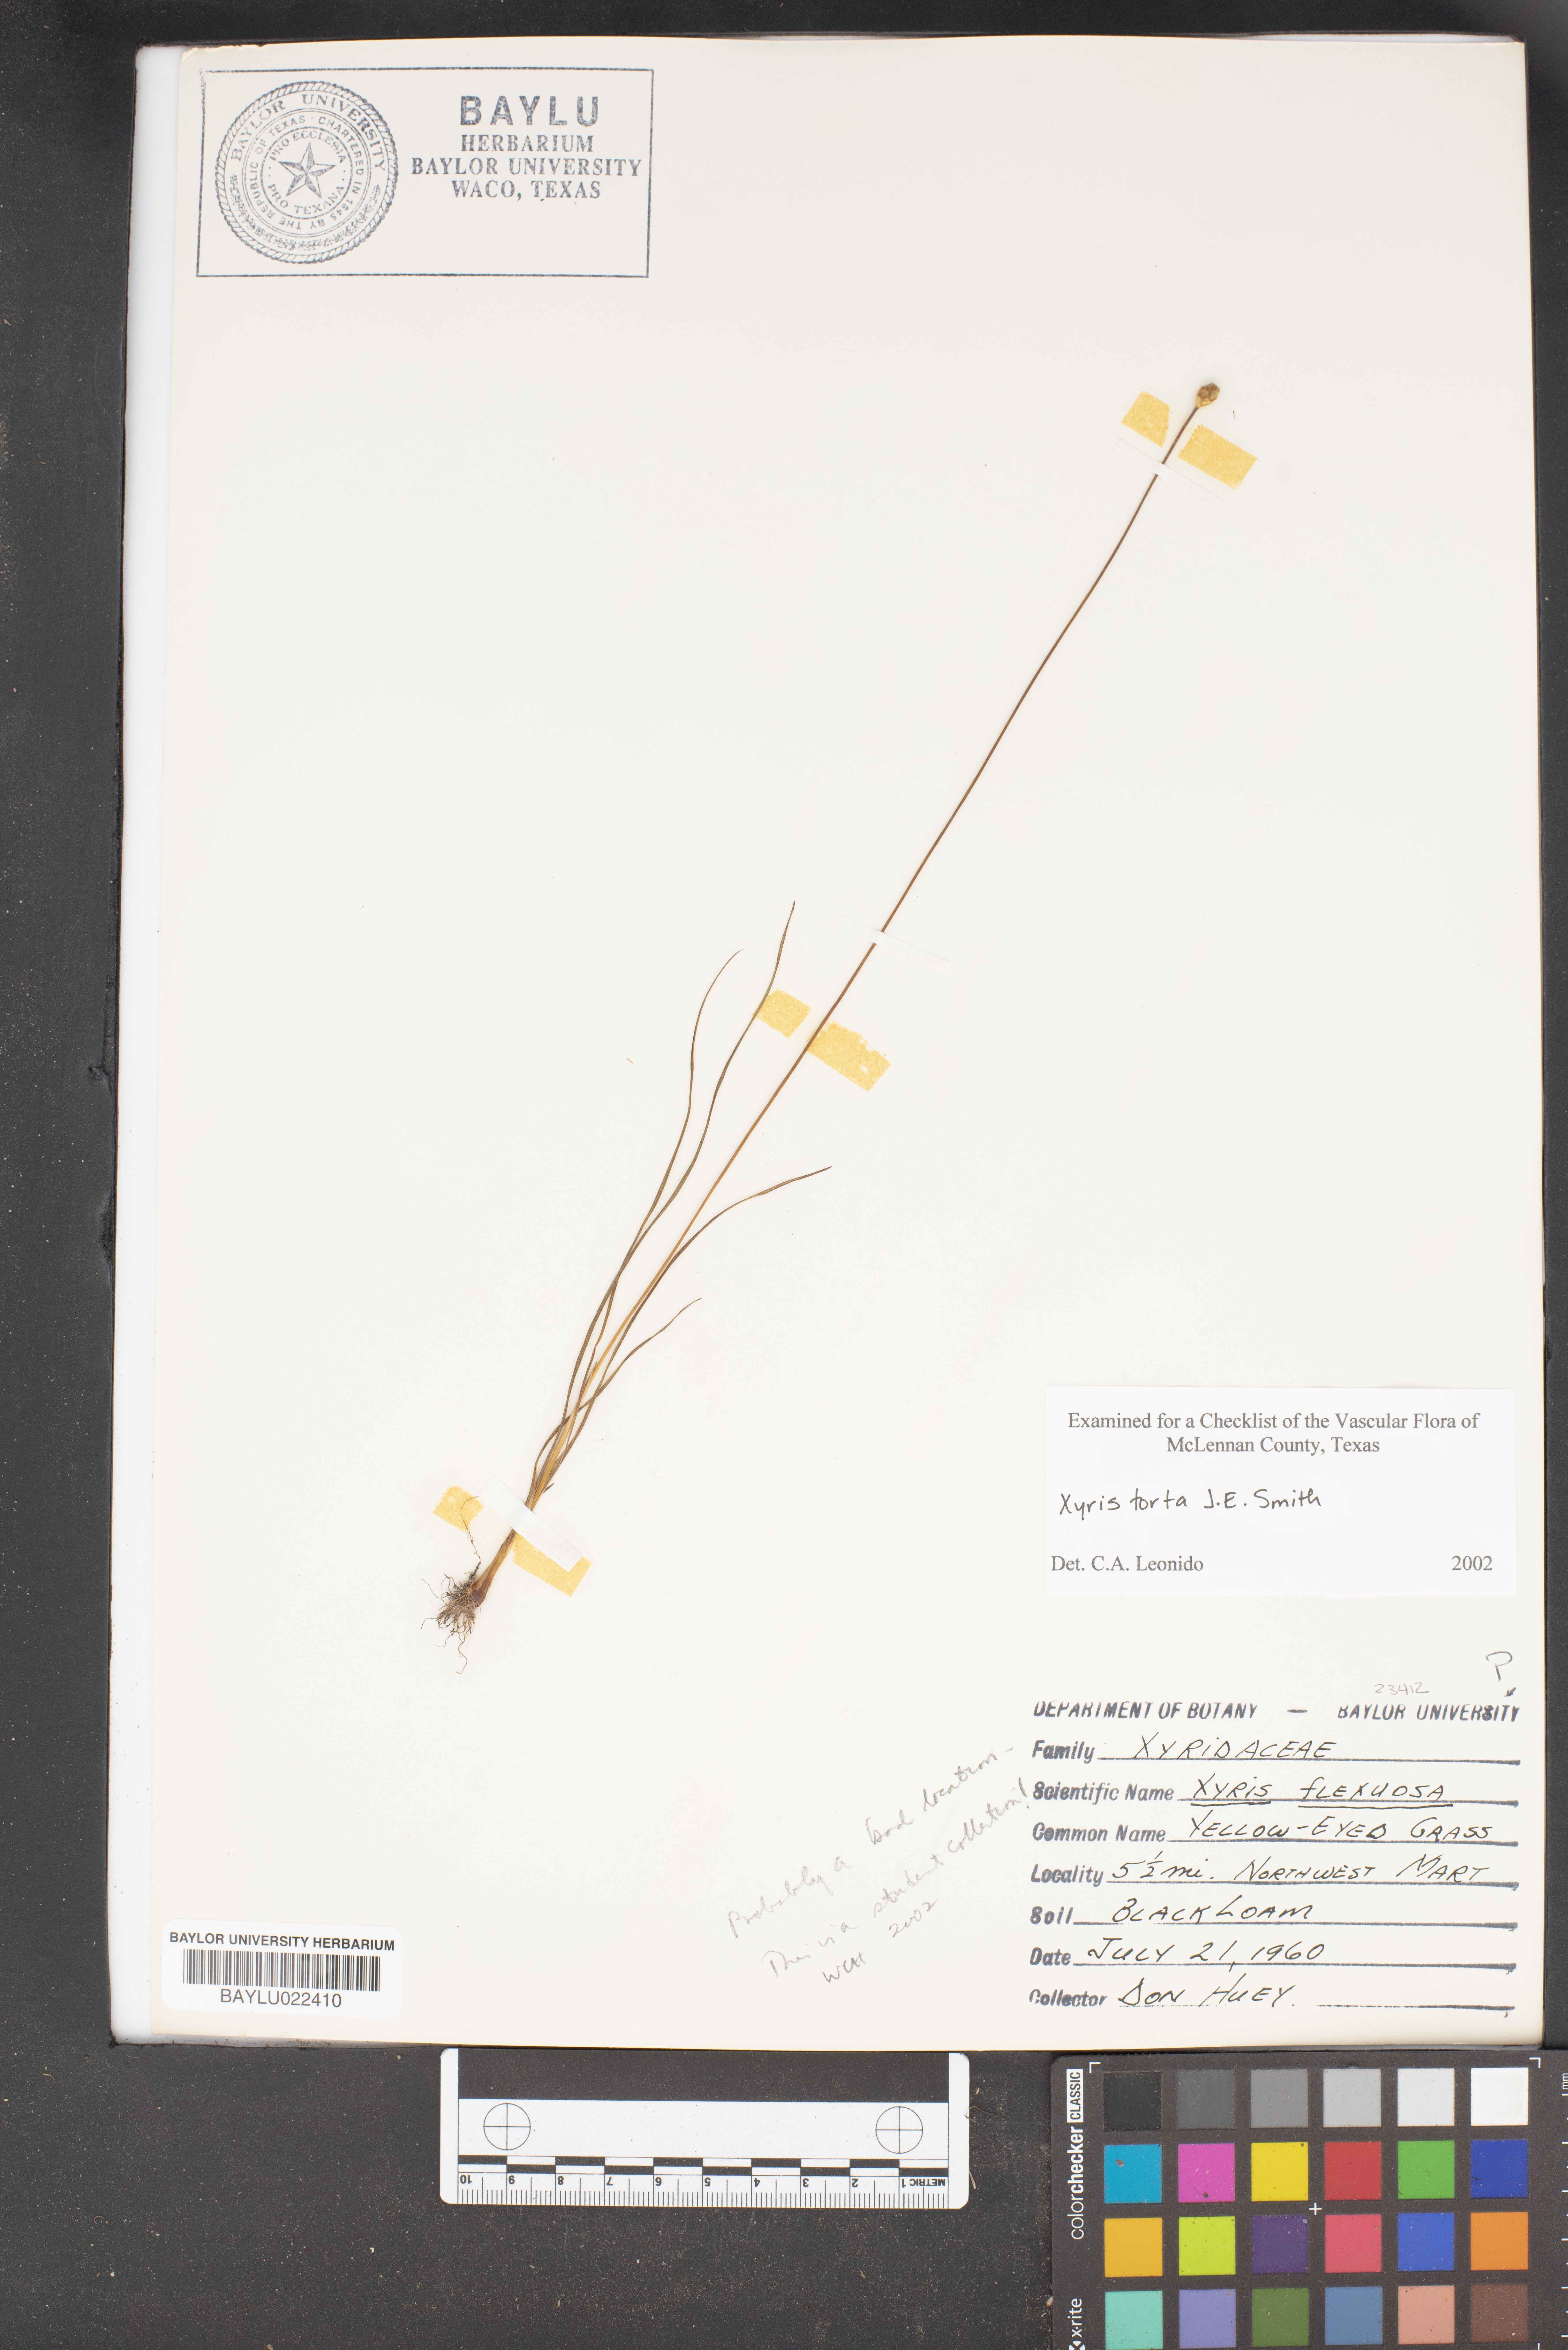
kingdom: Plantae
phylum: Tracheophyta
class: Liliopsida
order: Poales
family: Xyridaceae
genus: Xyris
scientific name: Xyris flexuosa
